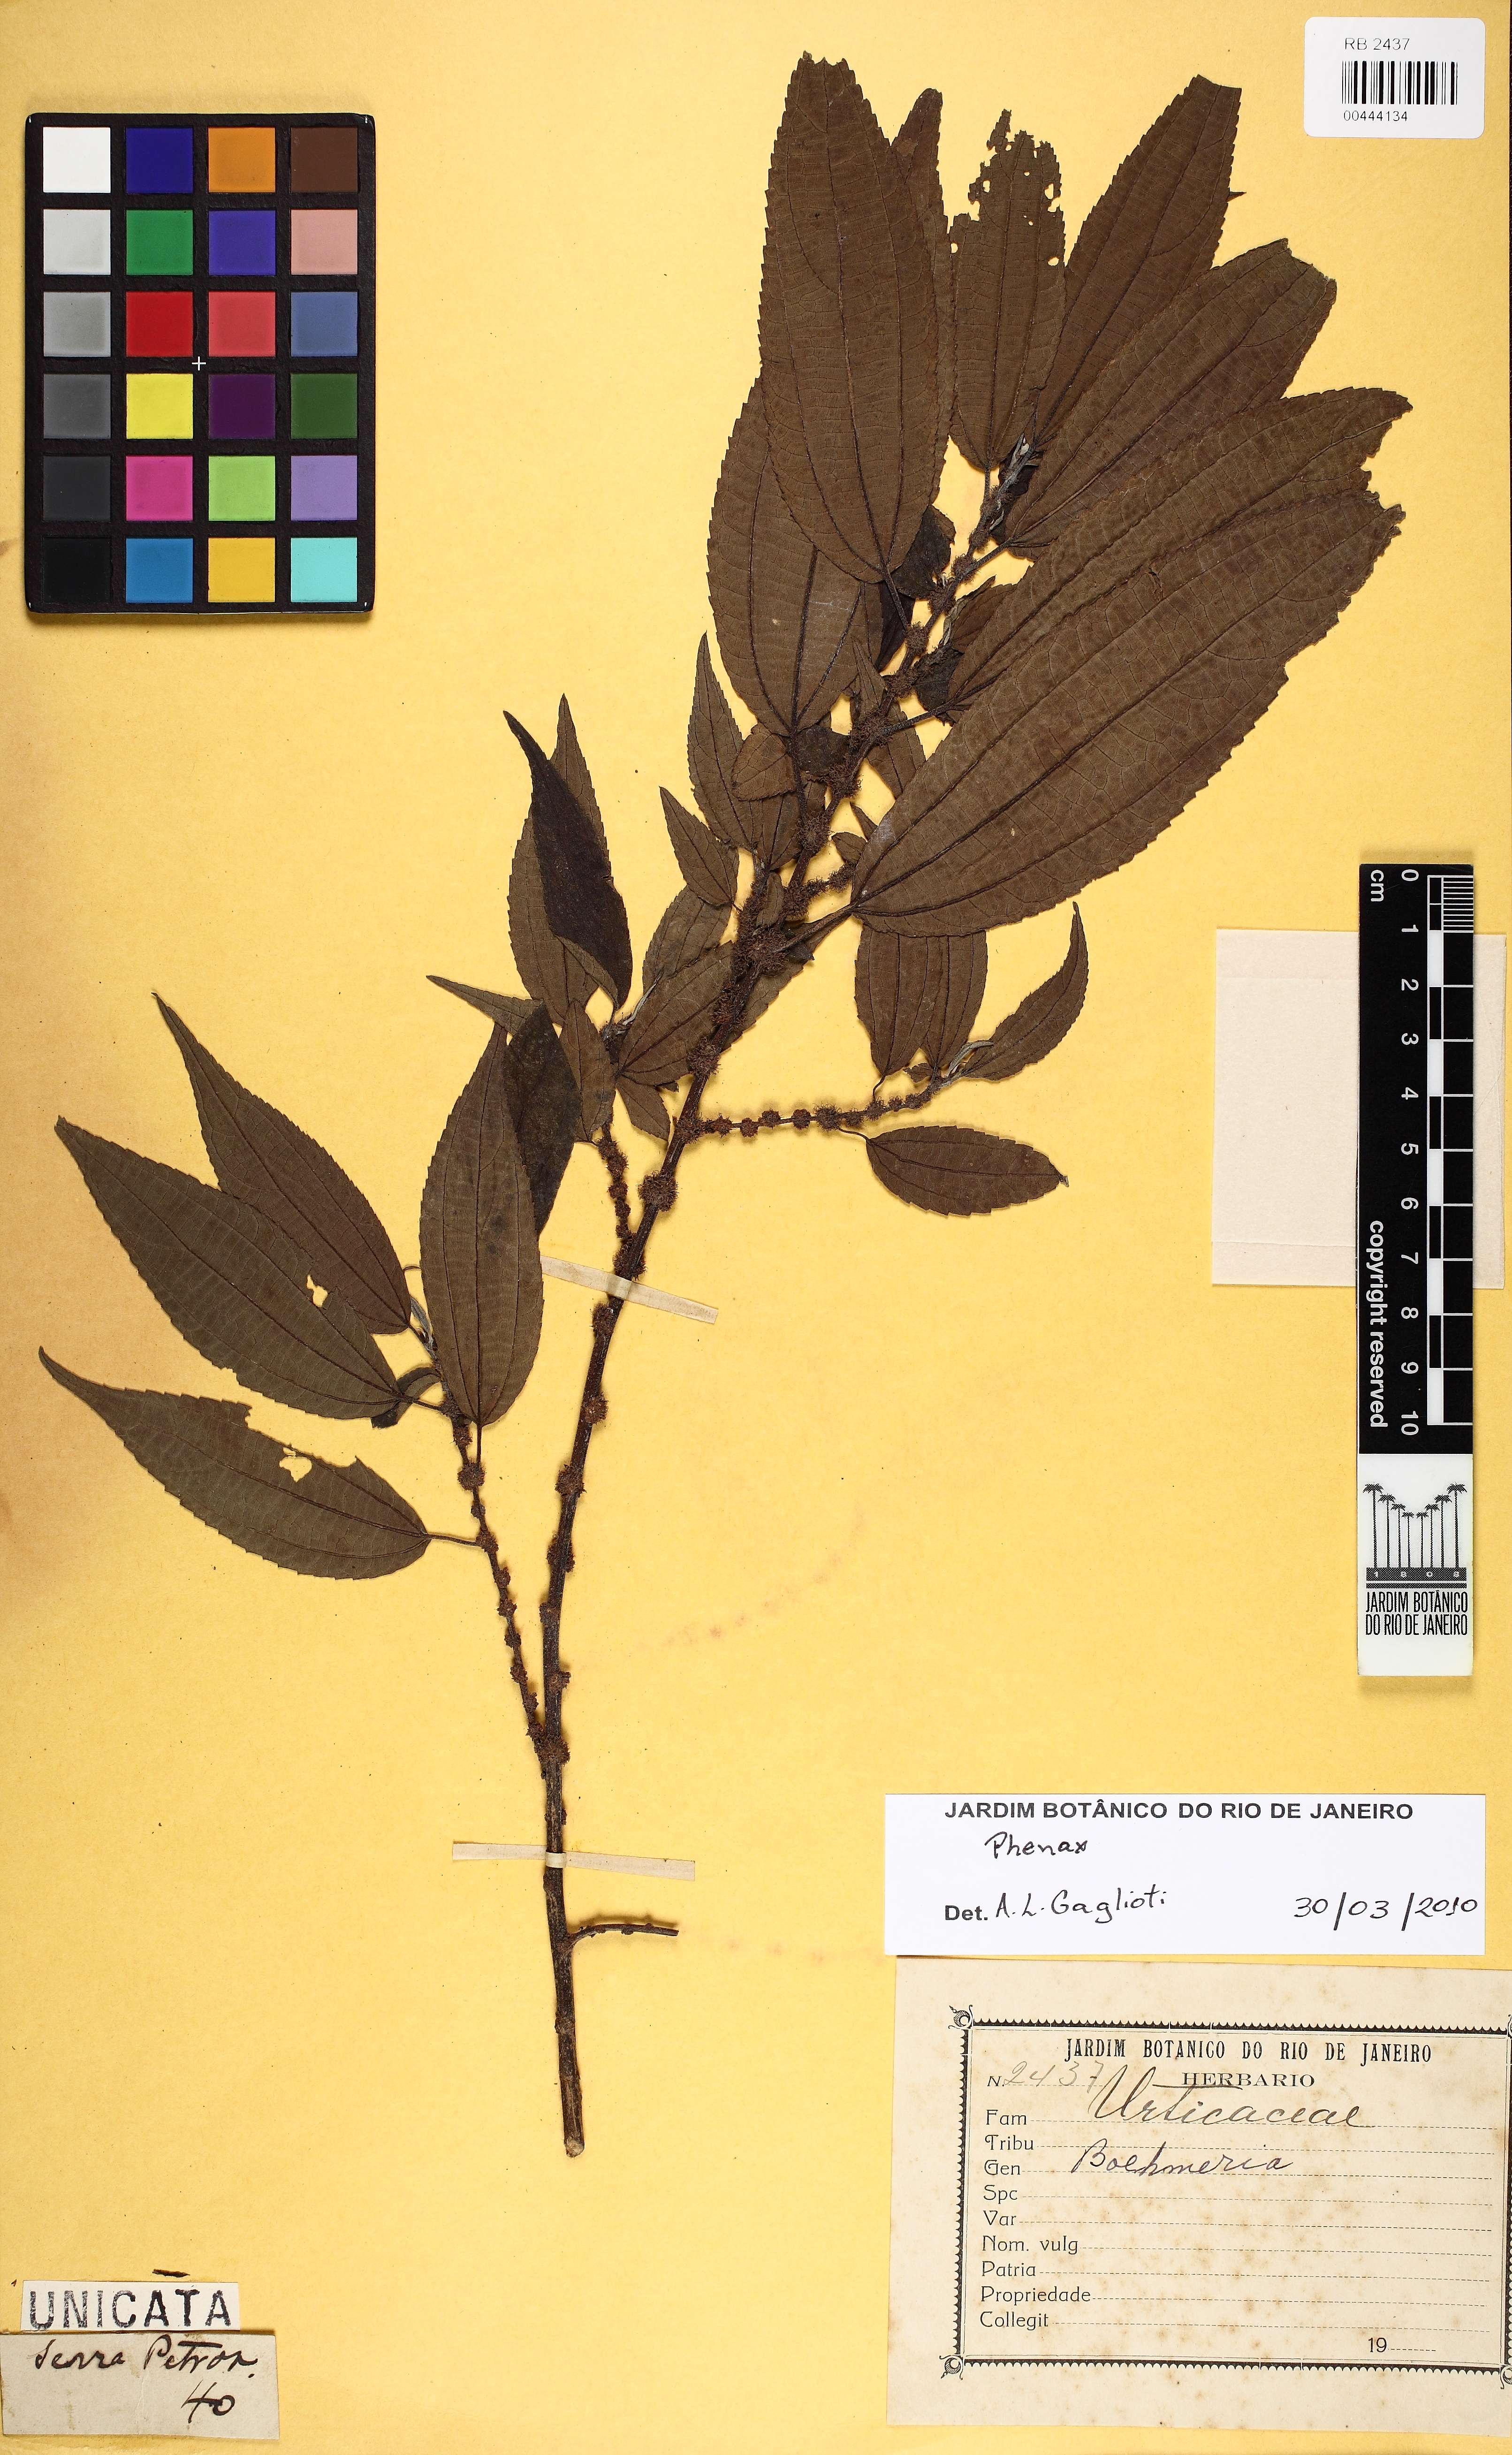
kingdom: Plantae
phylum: Tracheophyta
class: Magnoliopsida
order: Rosales
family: Urticaceae
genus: Phenax
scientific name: Phenax
